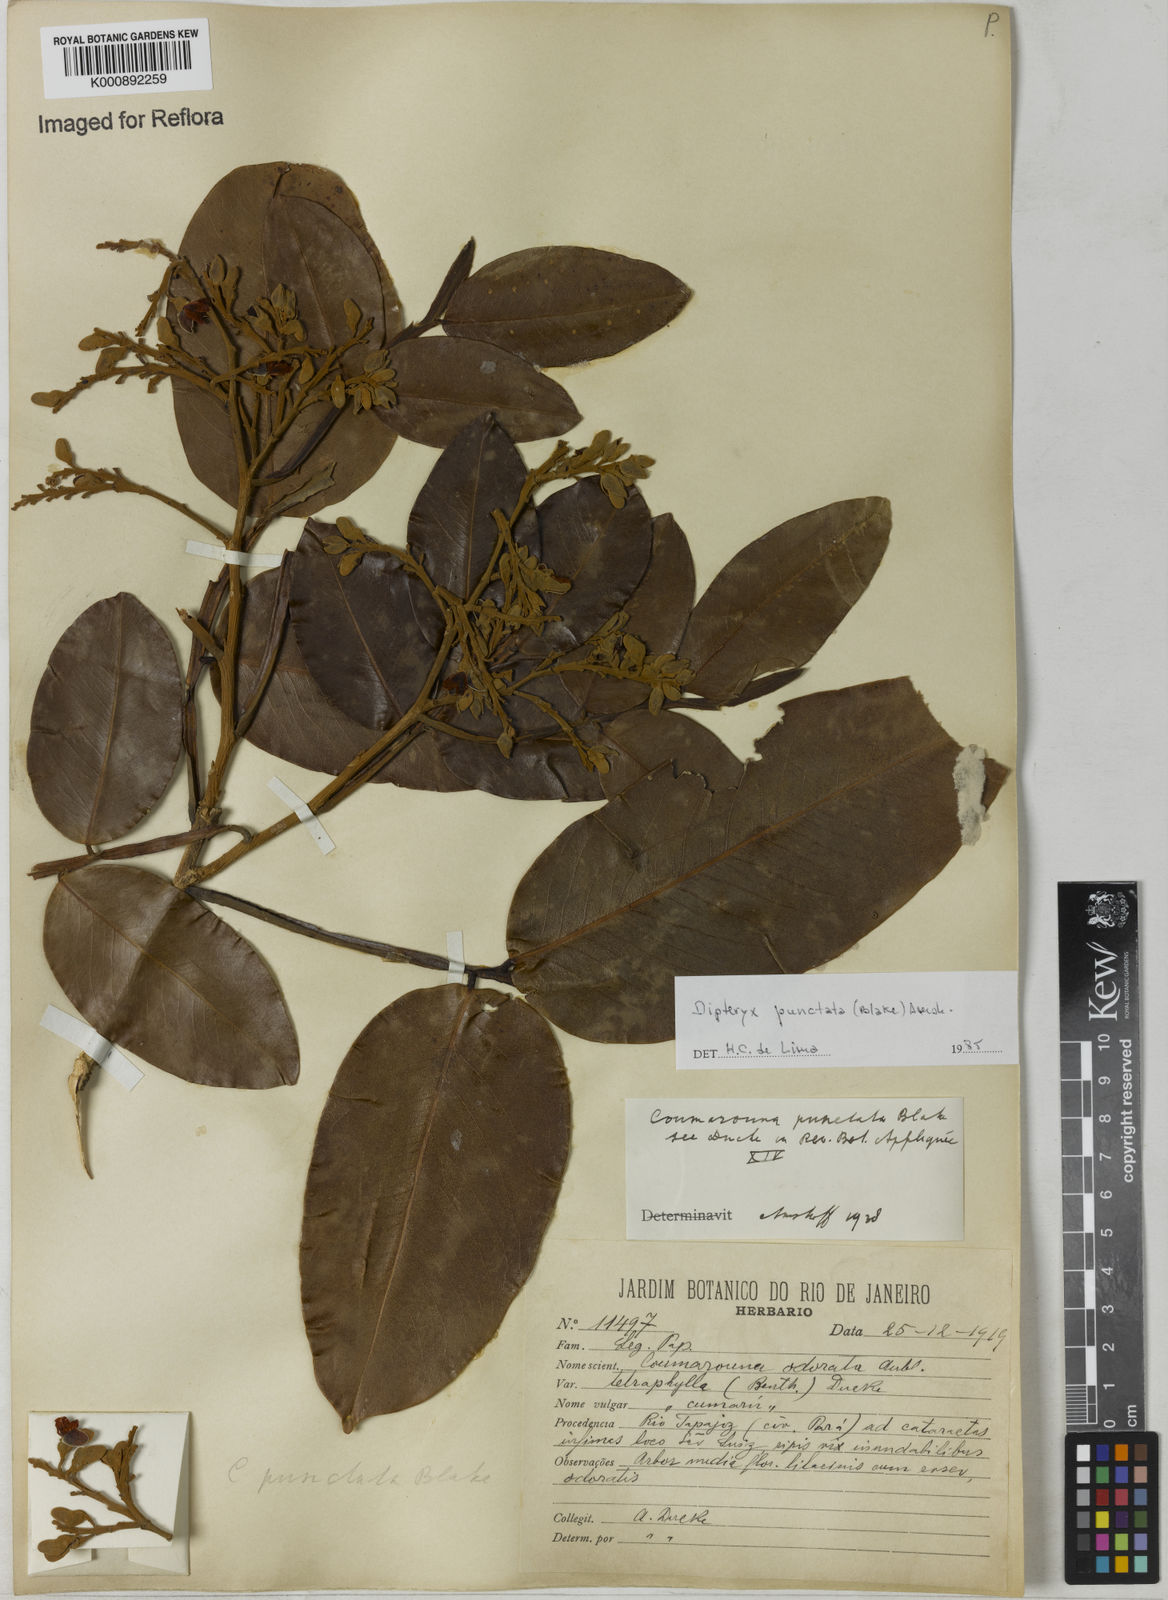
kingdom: Plantae
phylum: Tracheophyta
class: Magnoliopsida
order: Fabales
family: Fabaceae
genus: Dipteryx
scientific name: Dipteryx punctata
